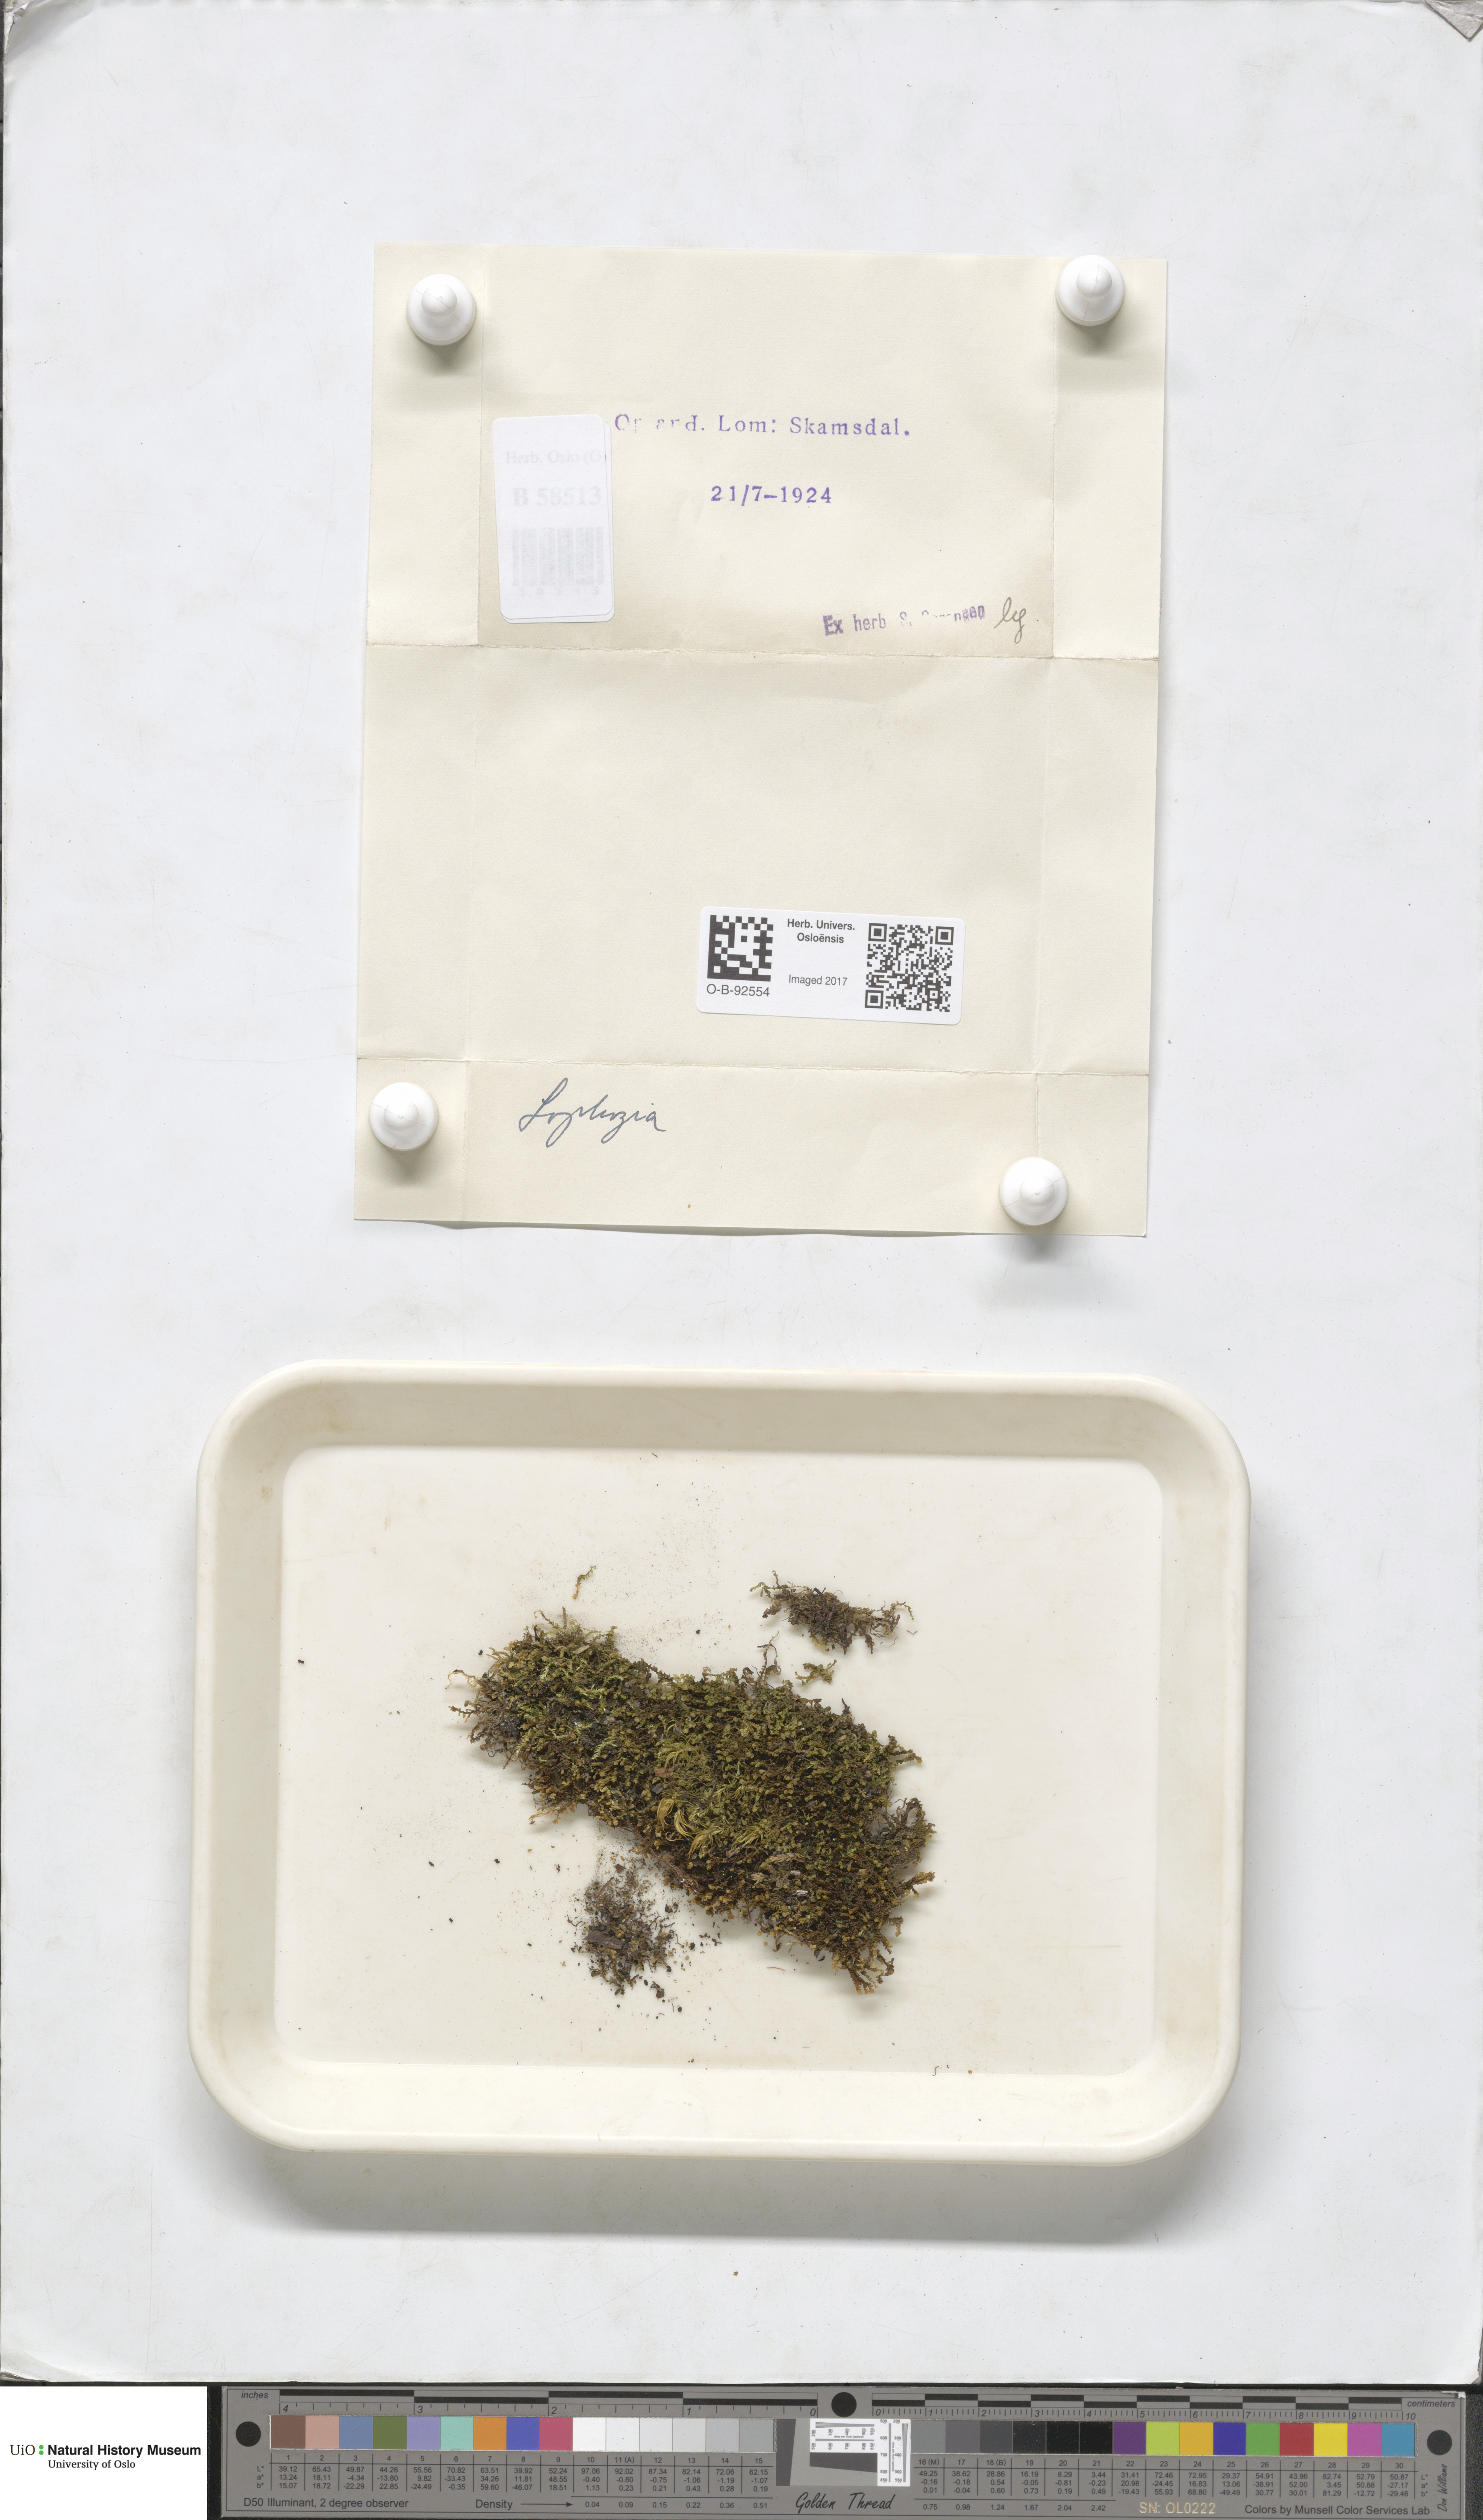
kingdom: Plantae
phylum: Marchantiophyta
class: Jungermanniopsida
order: Jungermanniales
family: Lophoziaceae
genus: Lophozia
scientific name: Lophozia
